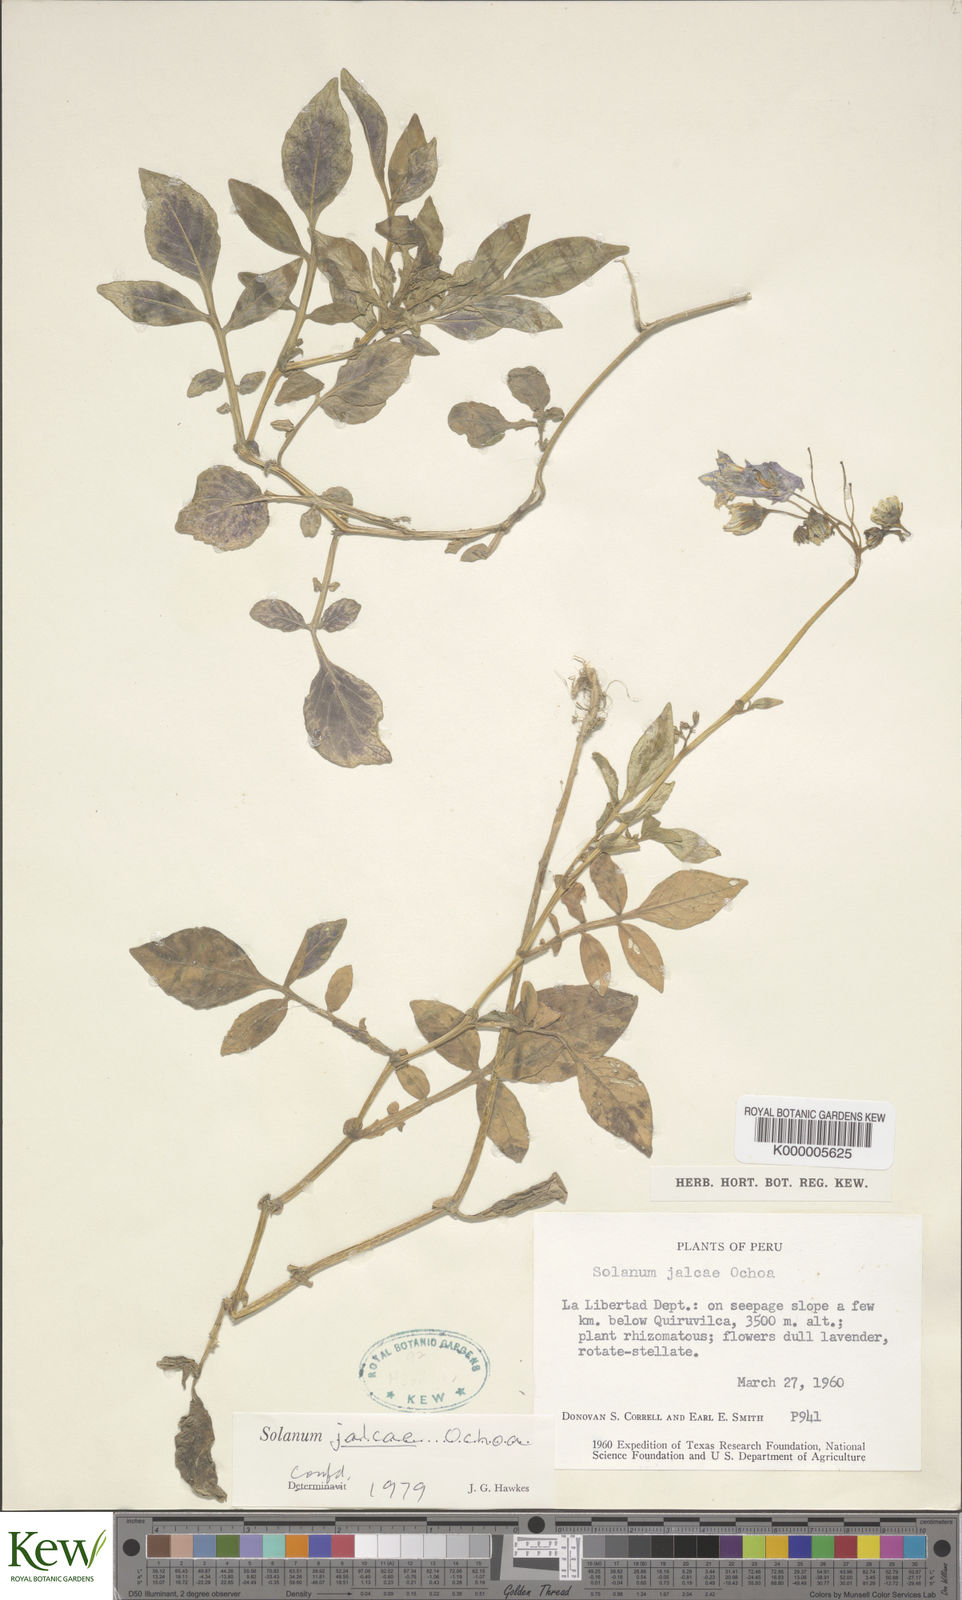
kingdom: Plantae
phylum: Tracheophyta
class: Magnoliopsida
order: Solanales
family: Solanaceae
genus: Solanum
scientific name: Solanum chomatophilum
